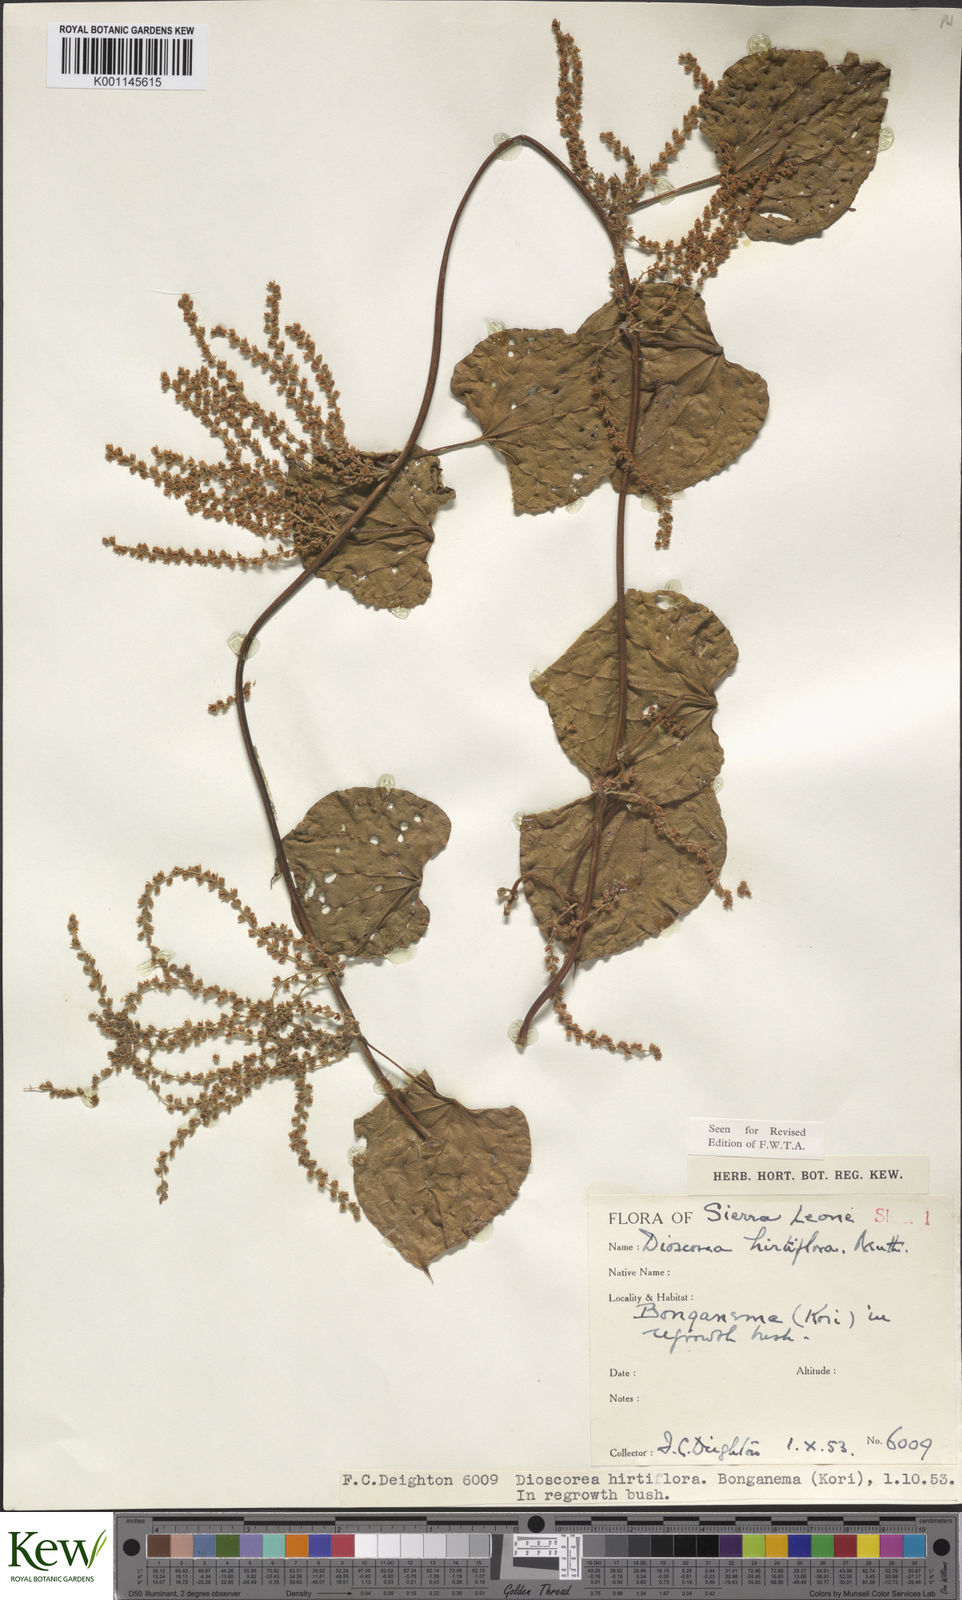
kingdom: Plantae
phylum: Tracheophyta
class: Liliopsida
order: Dioscoreales
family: Dioscoreaceae
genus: Dioscorea
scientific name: Dioscorea hirtiflora
